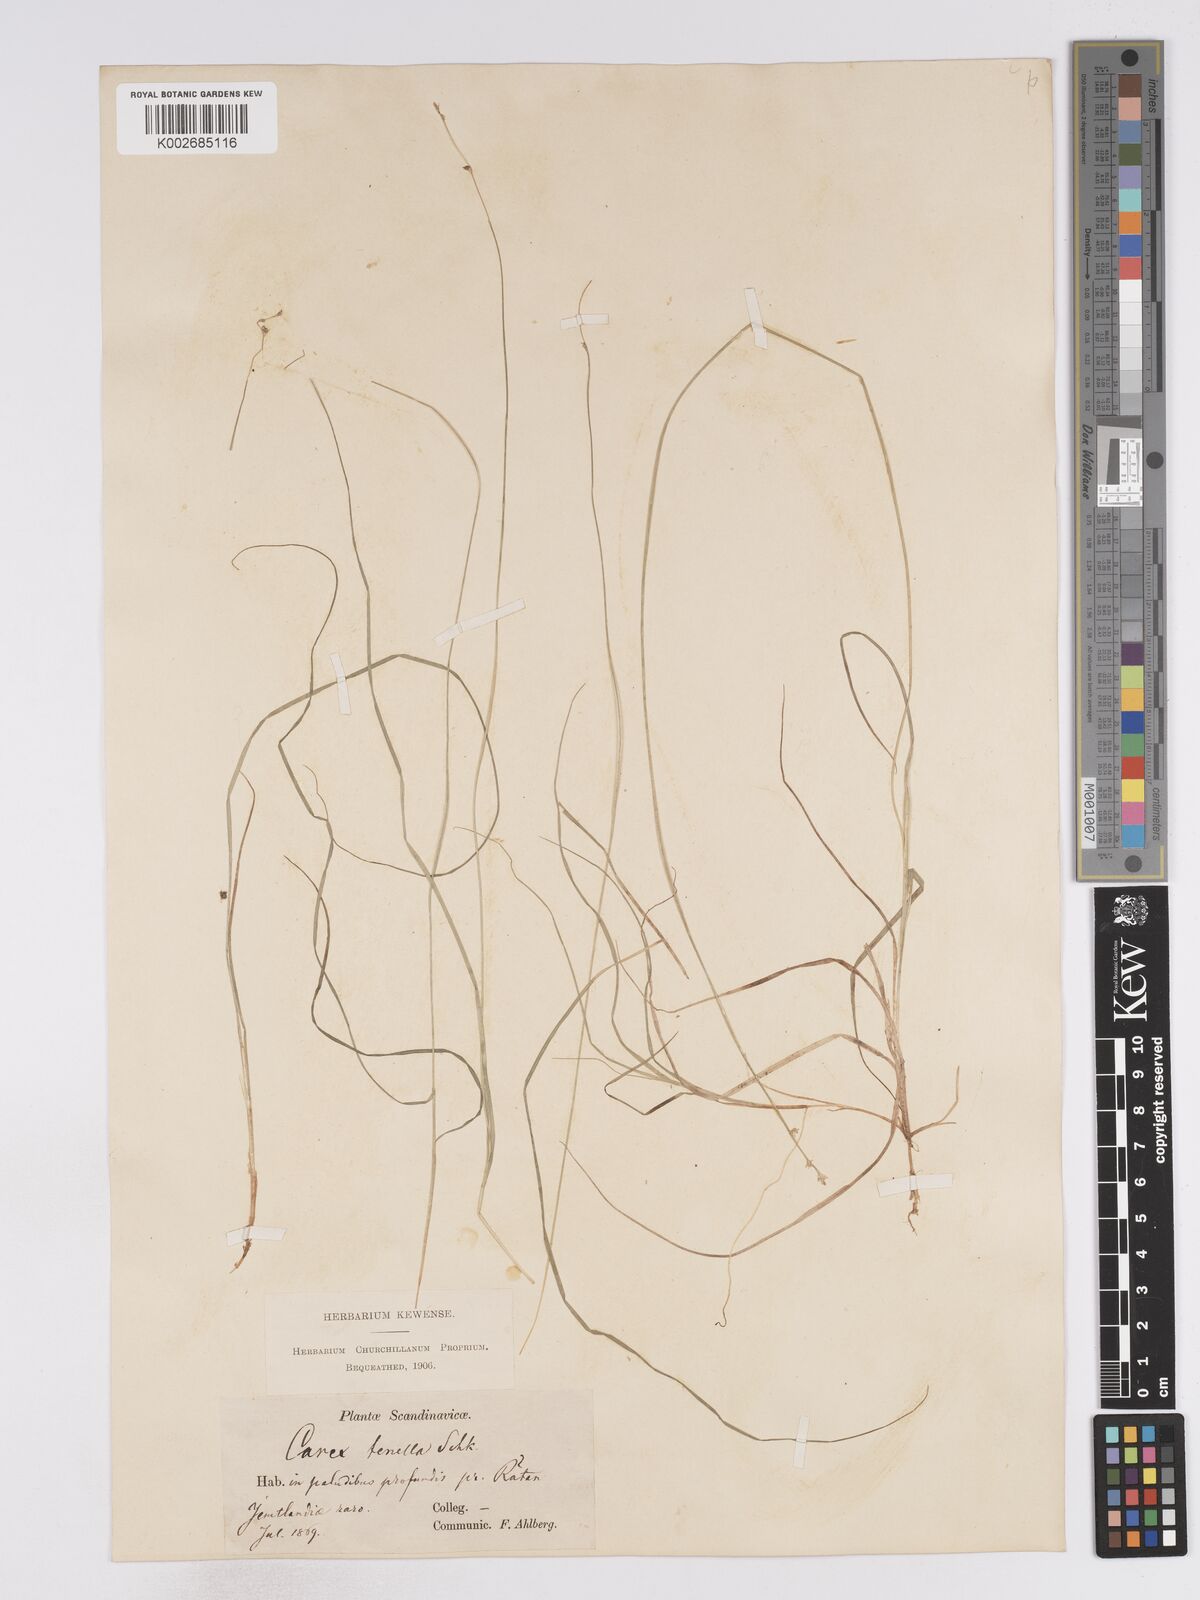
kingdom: Plantae
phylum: Tracheophyta
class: Liliopsida
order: Poales
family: Cyperaceae
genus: Carex
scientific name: Carex disperma
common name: Short-leaved sedge
